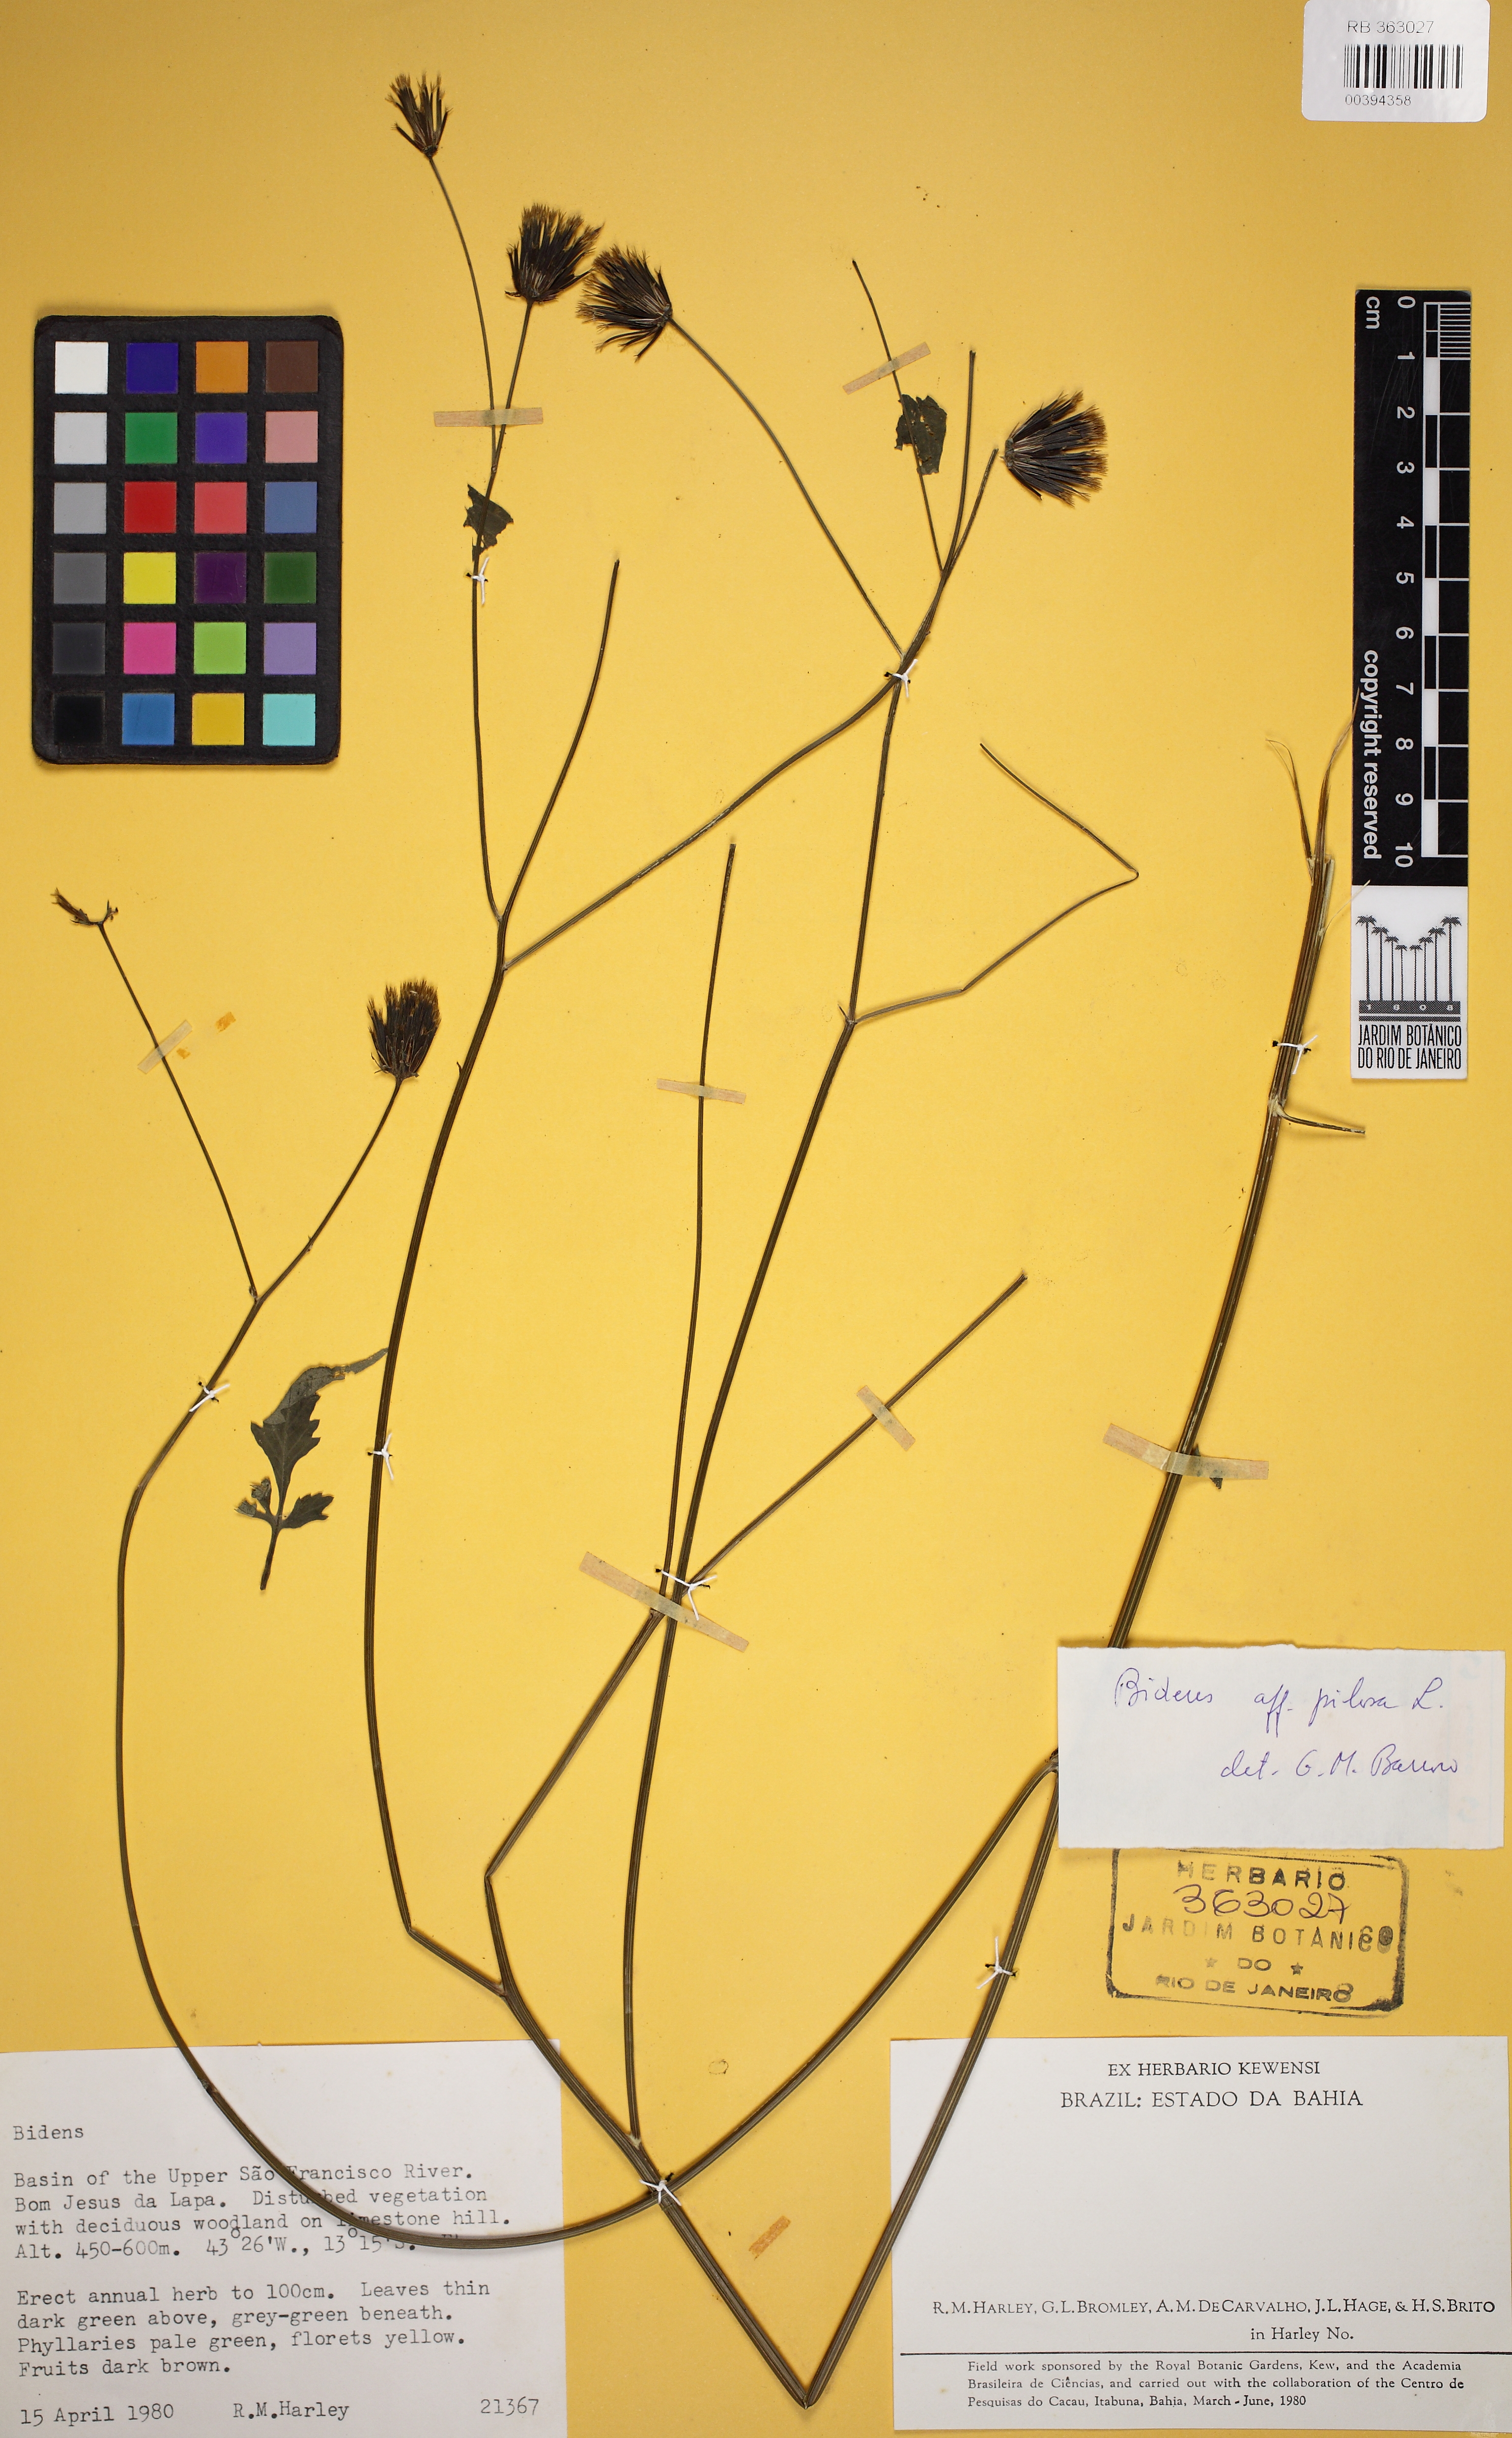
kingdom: Plantae
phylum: Tracheophyta
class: Magnoliopsida
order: Asterales
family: Asteraceae
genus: Bidens
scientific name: Bidens pilosa
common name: Black-jack
